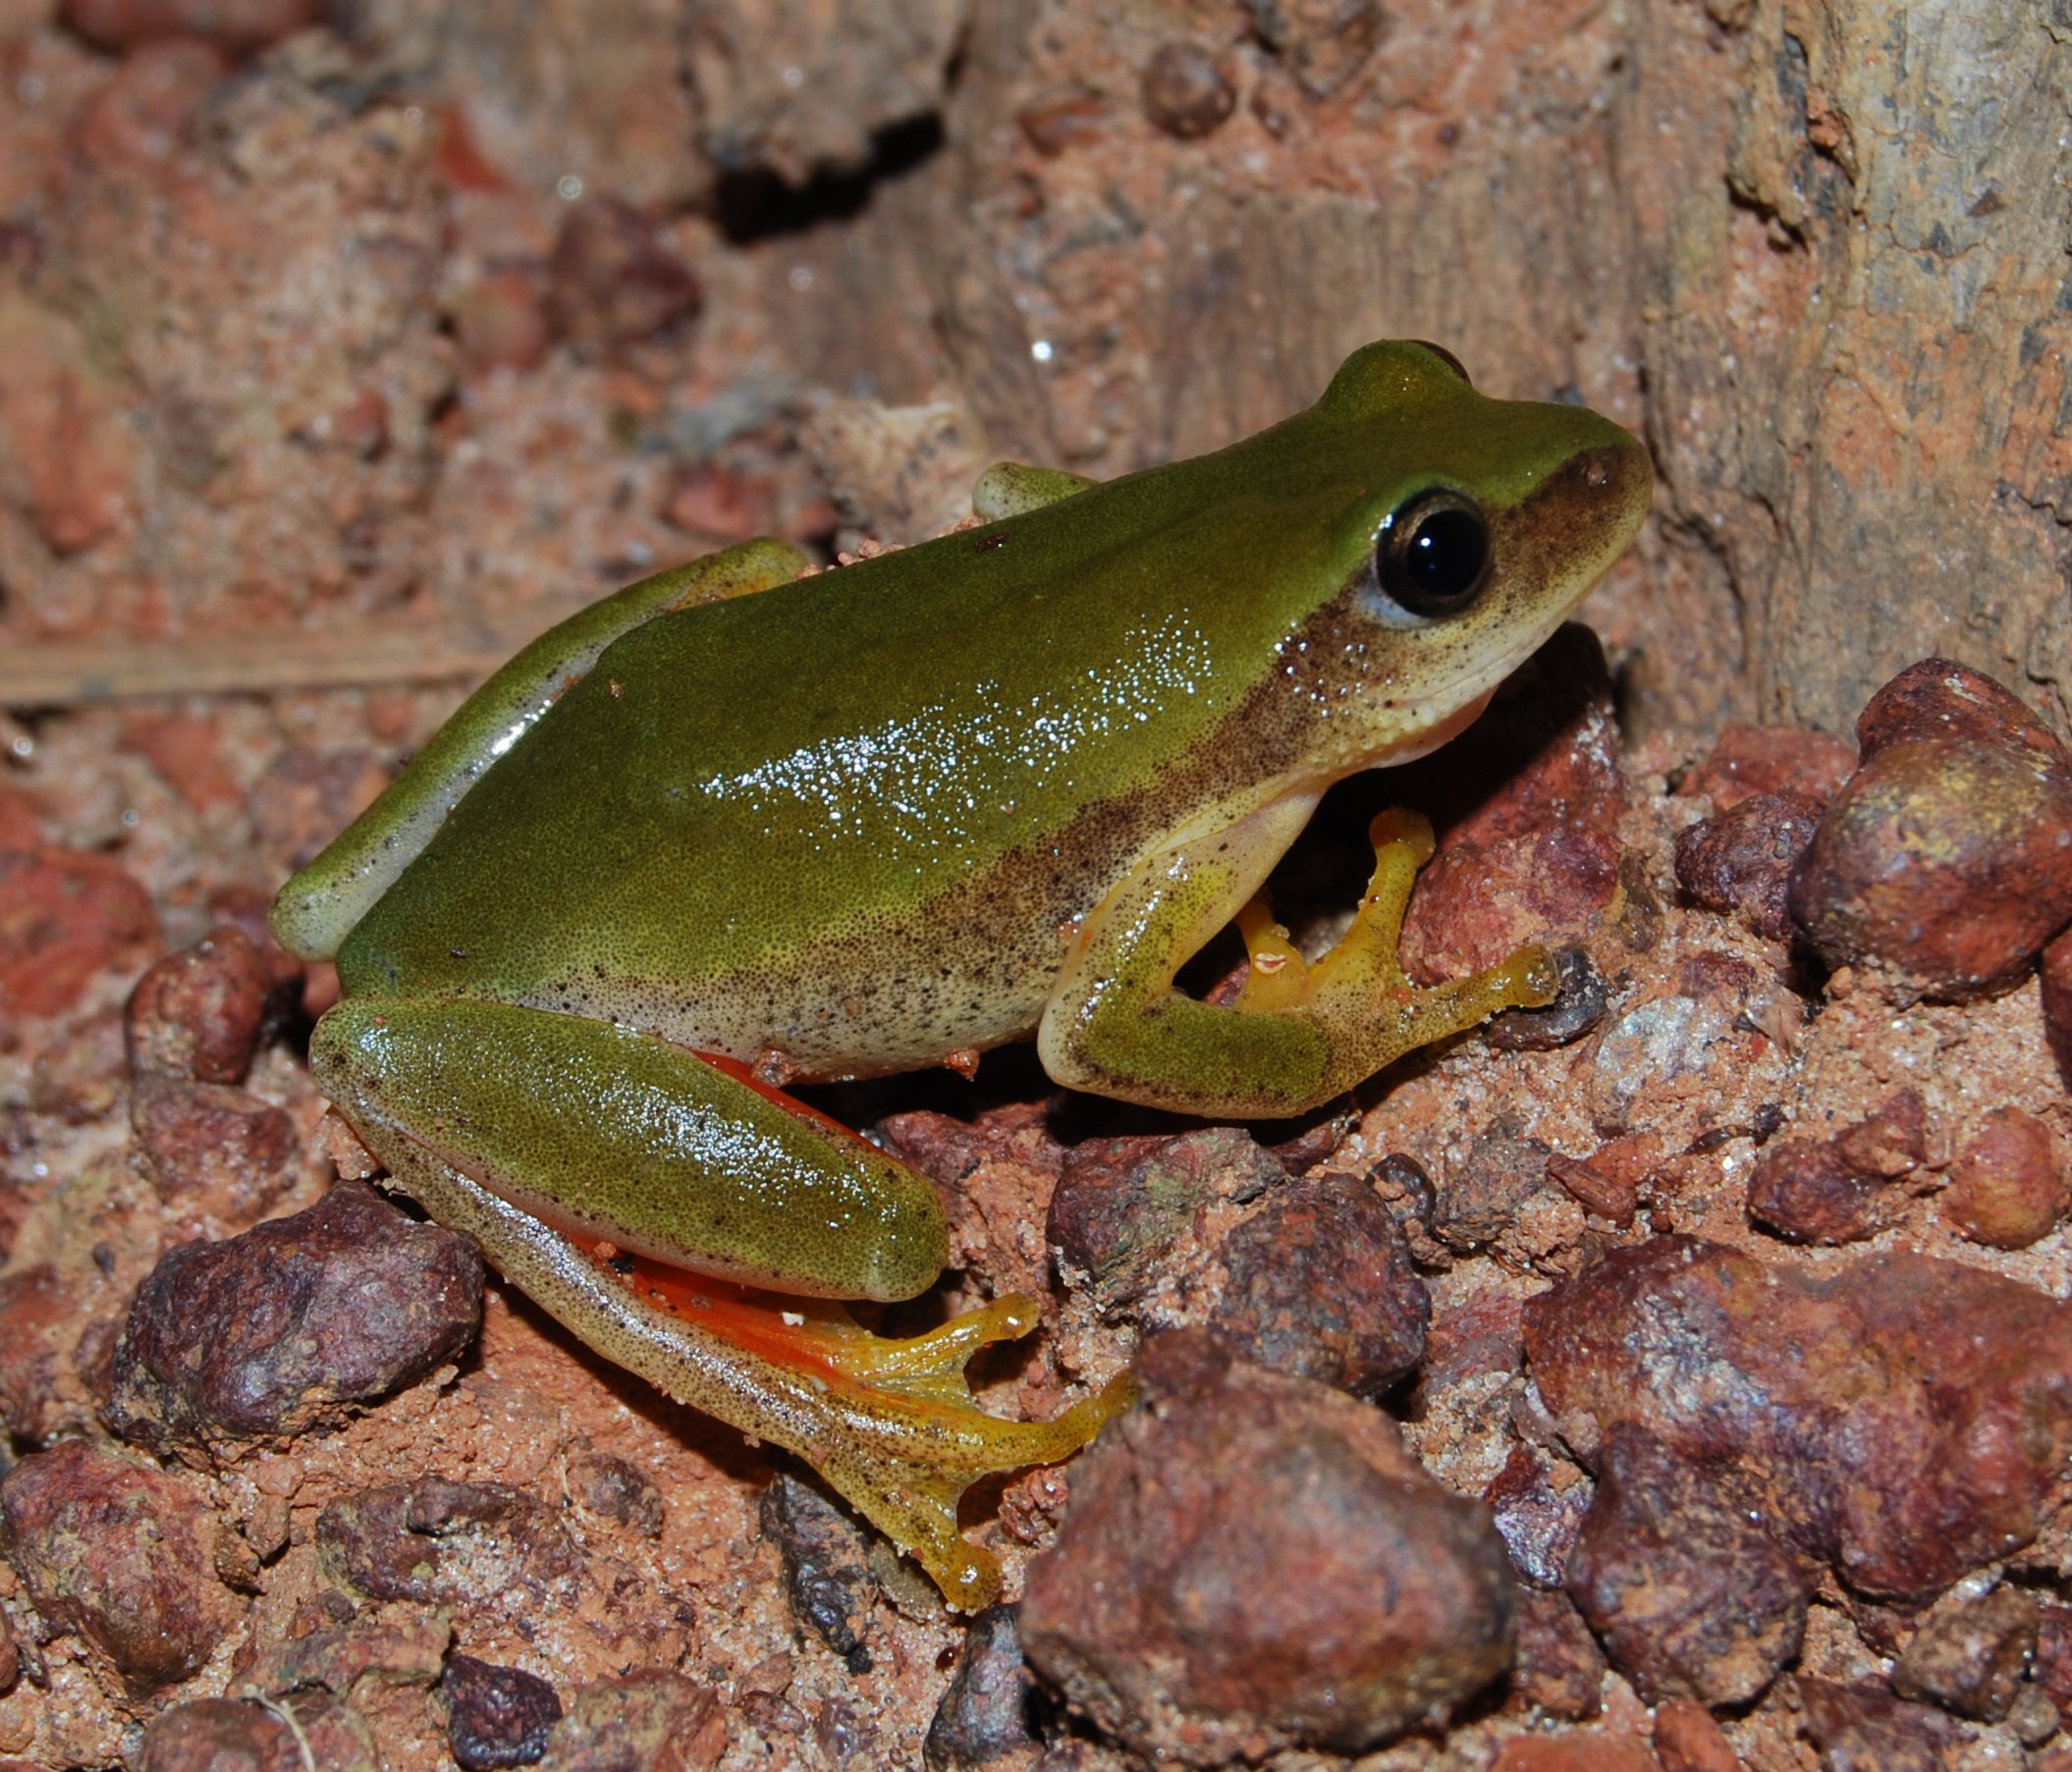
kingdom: Animalia
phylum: Chordata
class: Amphibia
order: Anura
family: Hyperoliidae
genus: Hyperolius
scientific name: Hyperolius kivuensis
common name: Kivu reed frog
